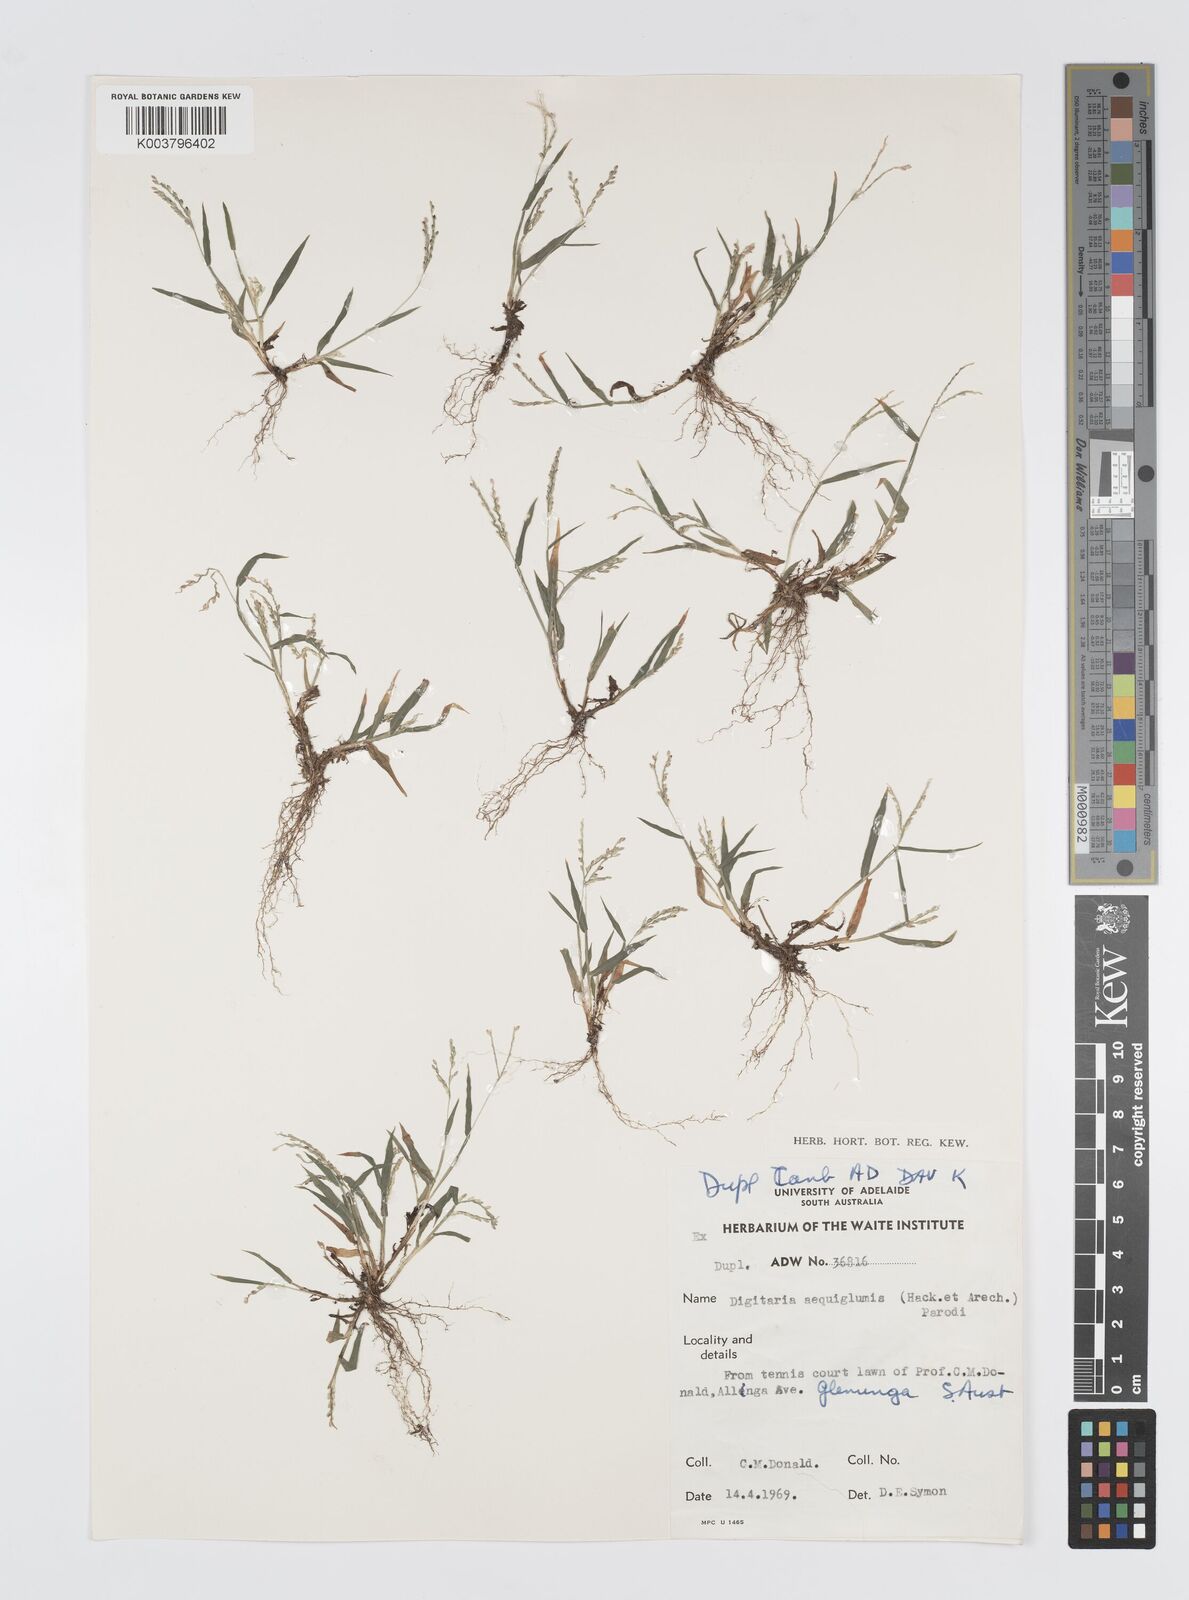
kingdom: Plantae
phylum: Tracheophyta
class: Liliopsida
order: Poales
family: Poaceae
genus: Digitaria
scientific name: Digitaria violascens
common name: Violet crabgrass
